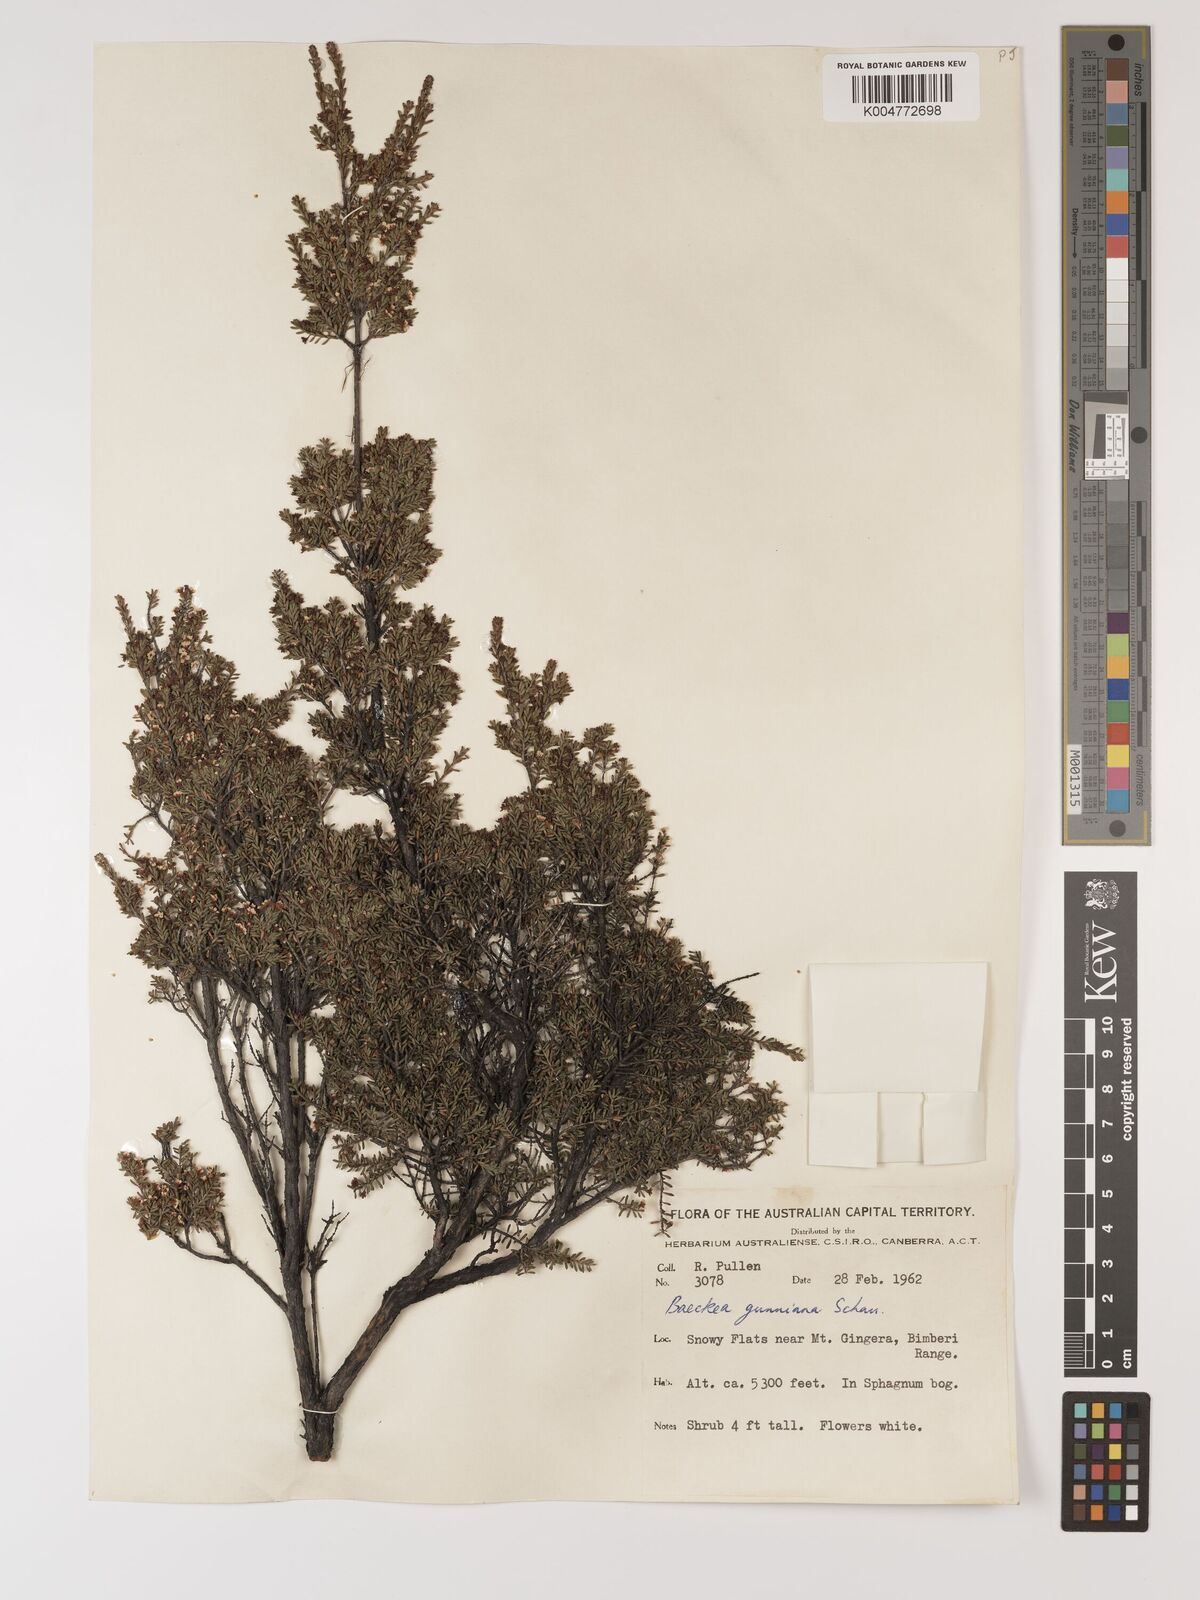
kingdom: Plantae
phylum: Tracheophyta
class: Magnoliopsida
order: Myrtales
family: Myrtaceae
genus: Baeckea
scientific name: Baeckea gunniana
